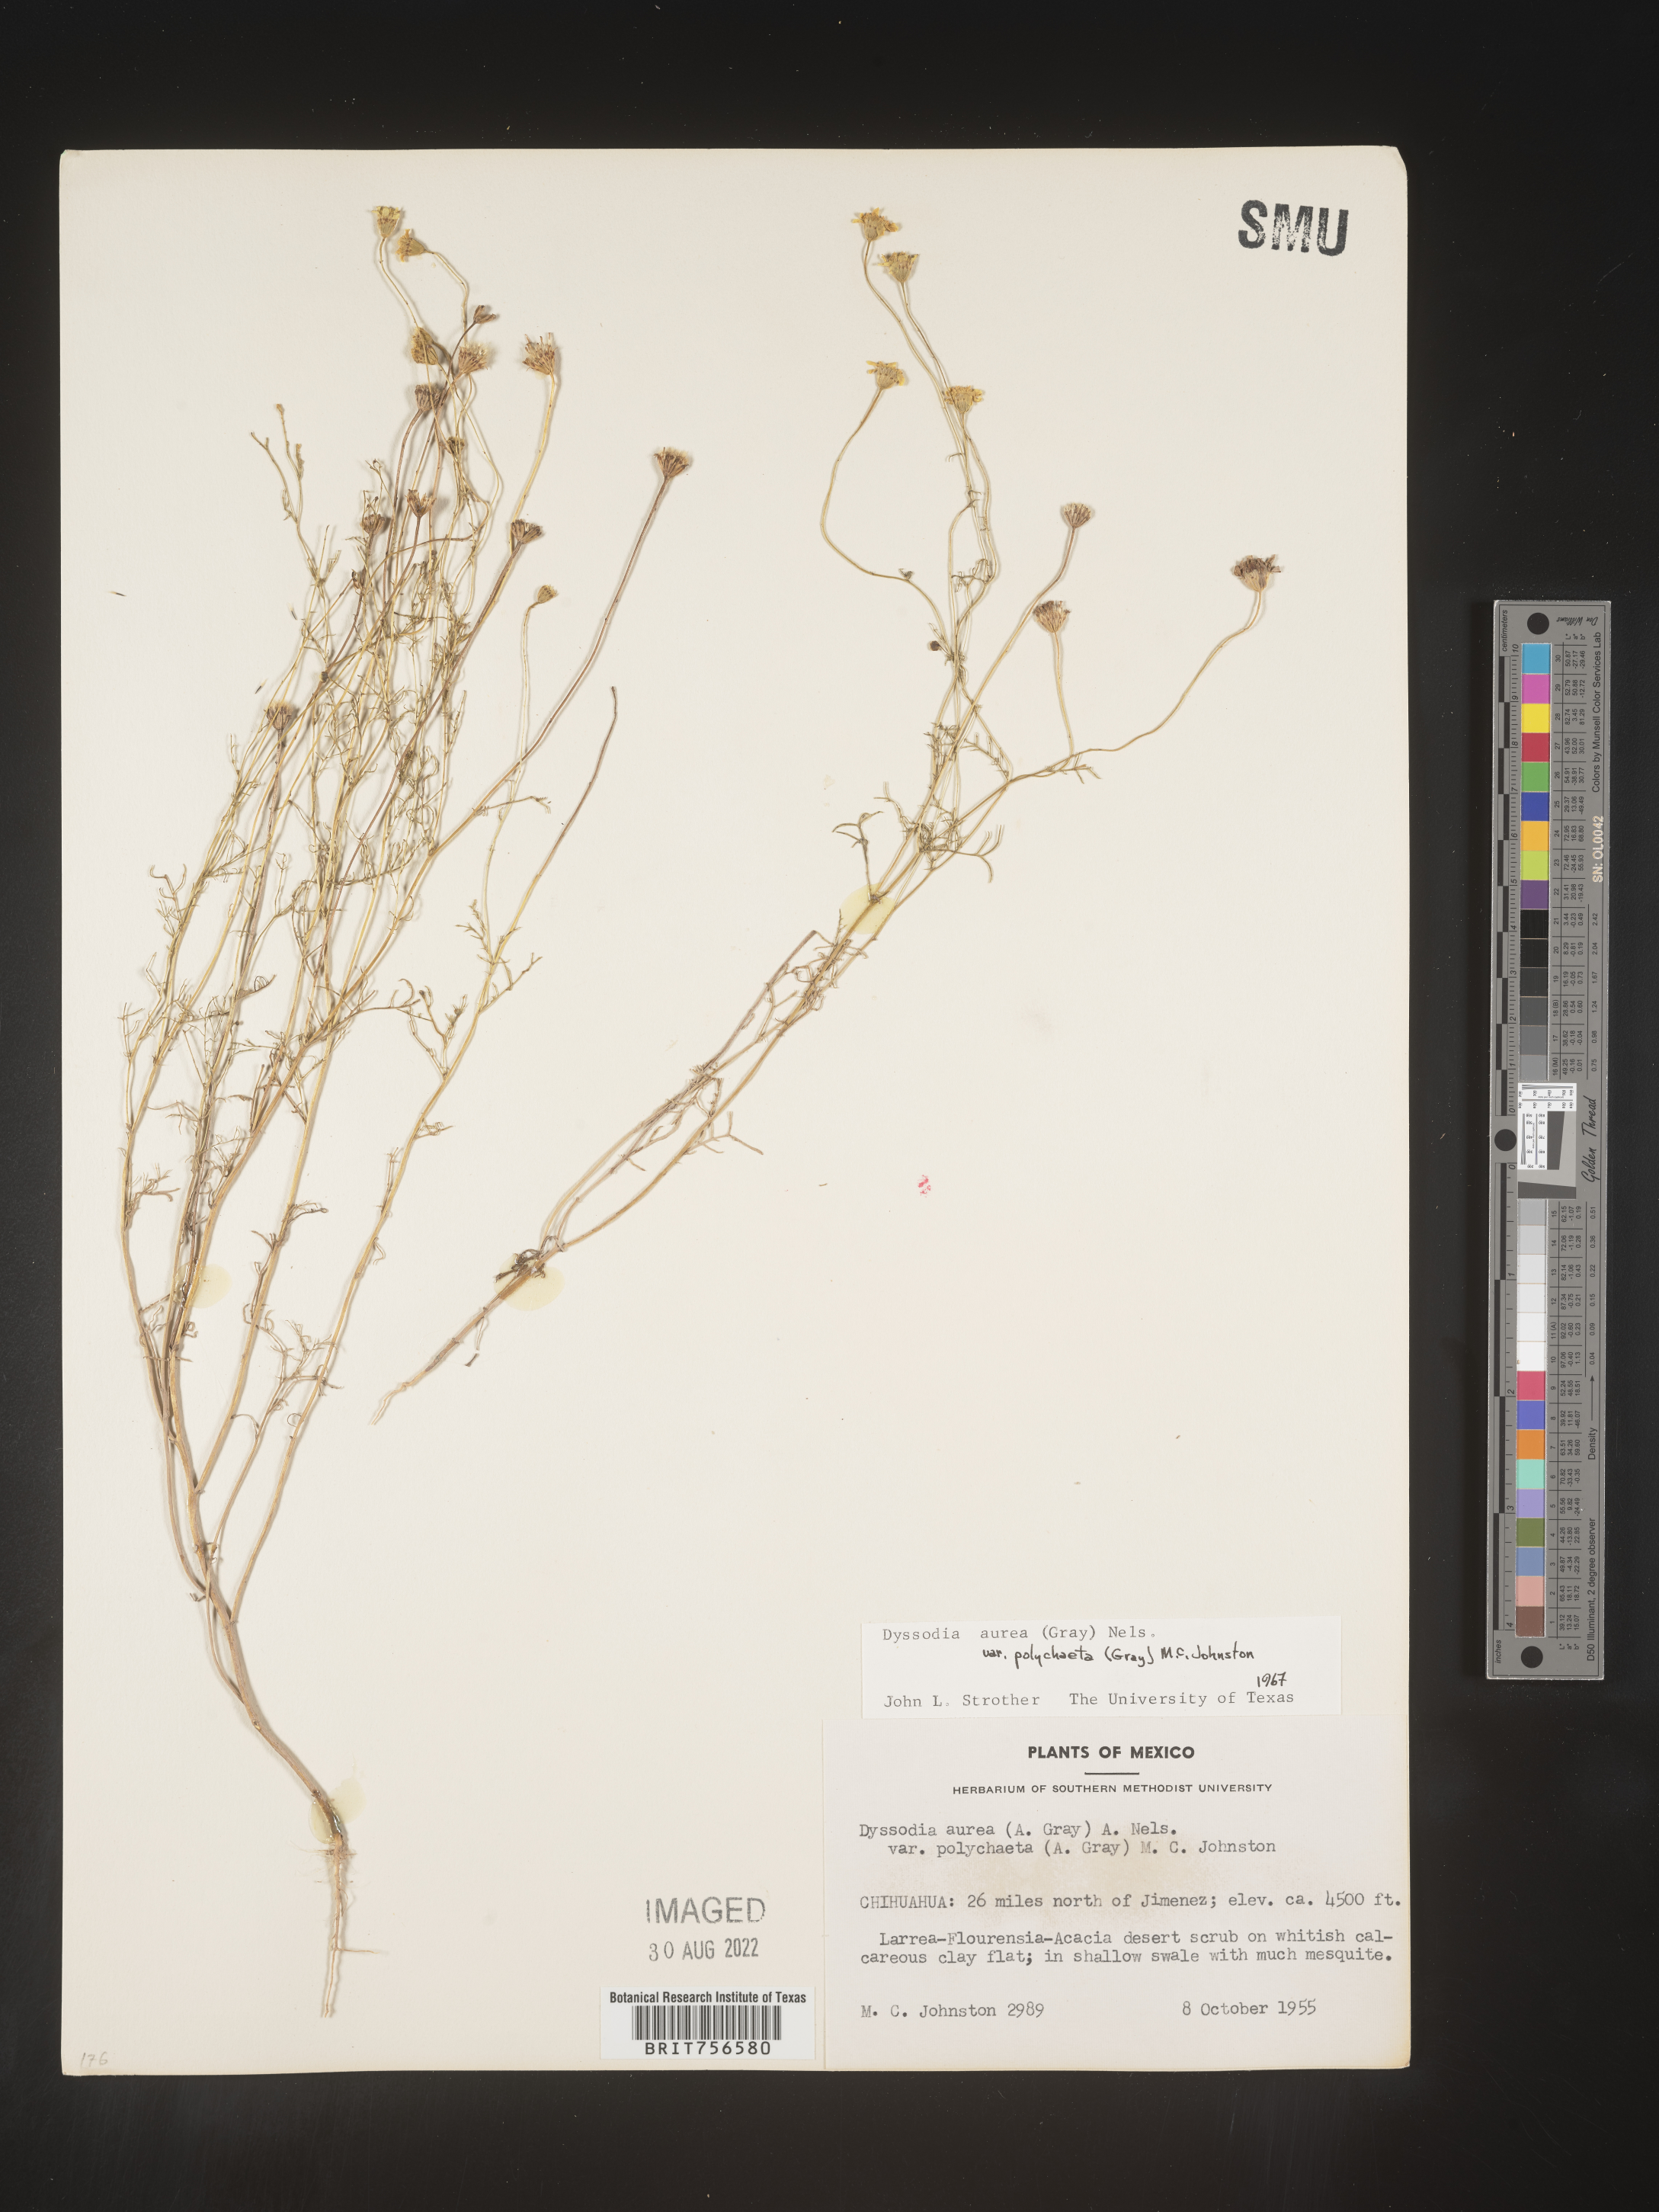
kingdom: Plantae
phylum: Tracheophyta
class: Magnoliopsida
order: Asterales
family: Asteraceae
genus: Thymophylla
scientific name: Thymophylla aurea
